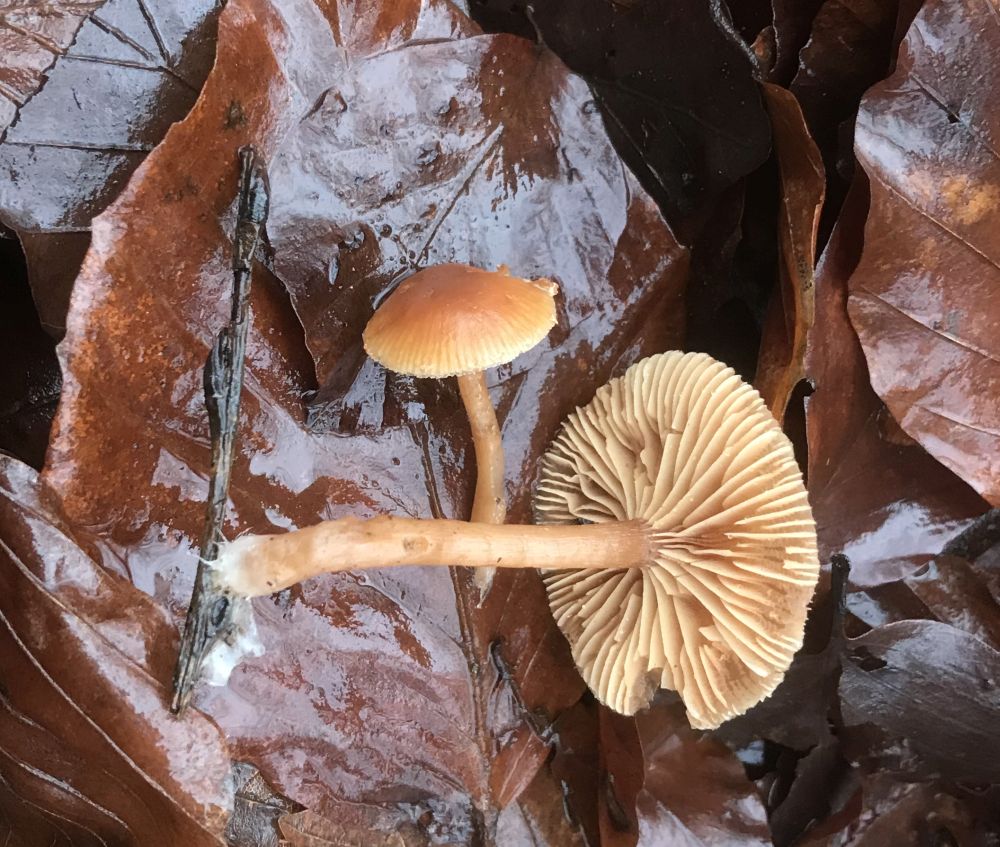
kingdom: Fungi
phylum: Basidiomycota
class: Agaricomycetes
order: Agaricales
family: Tubariaceae
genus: Tubaria
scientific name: Tubaria furfuracea
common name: kliddet fnughat
